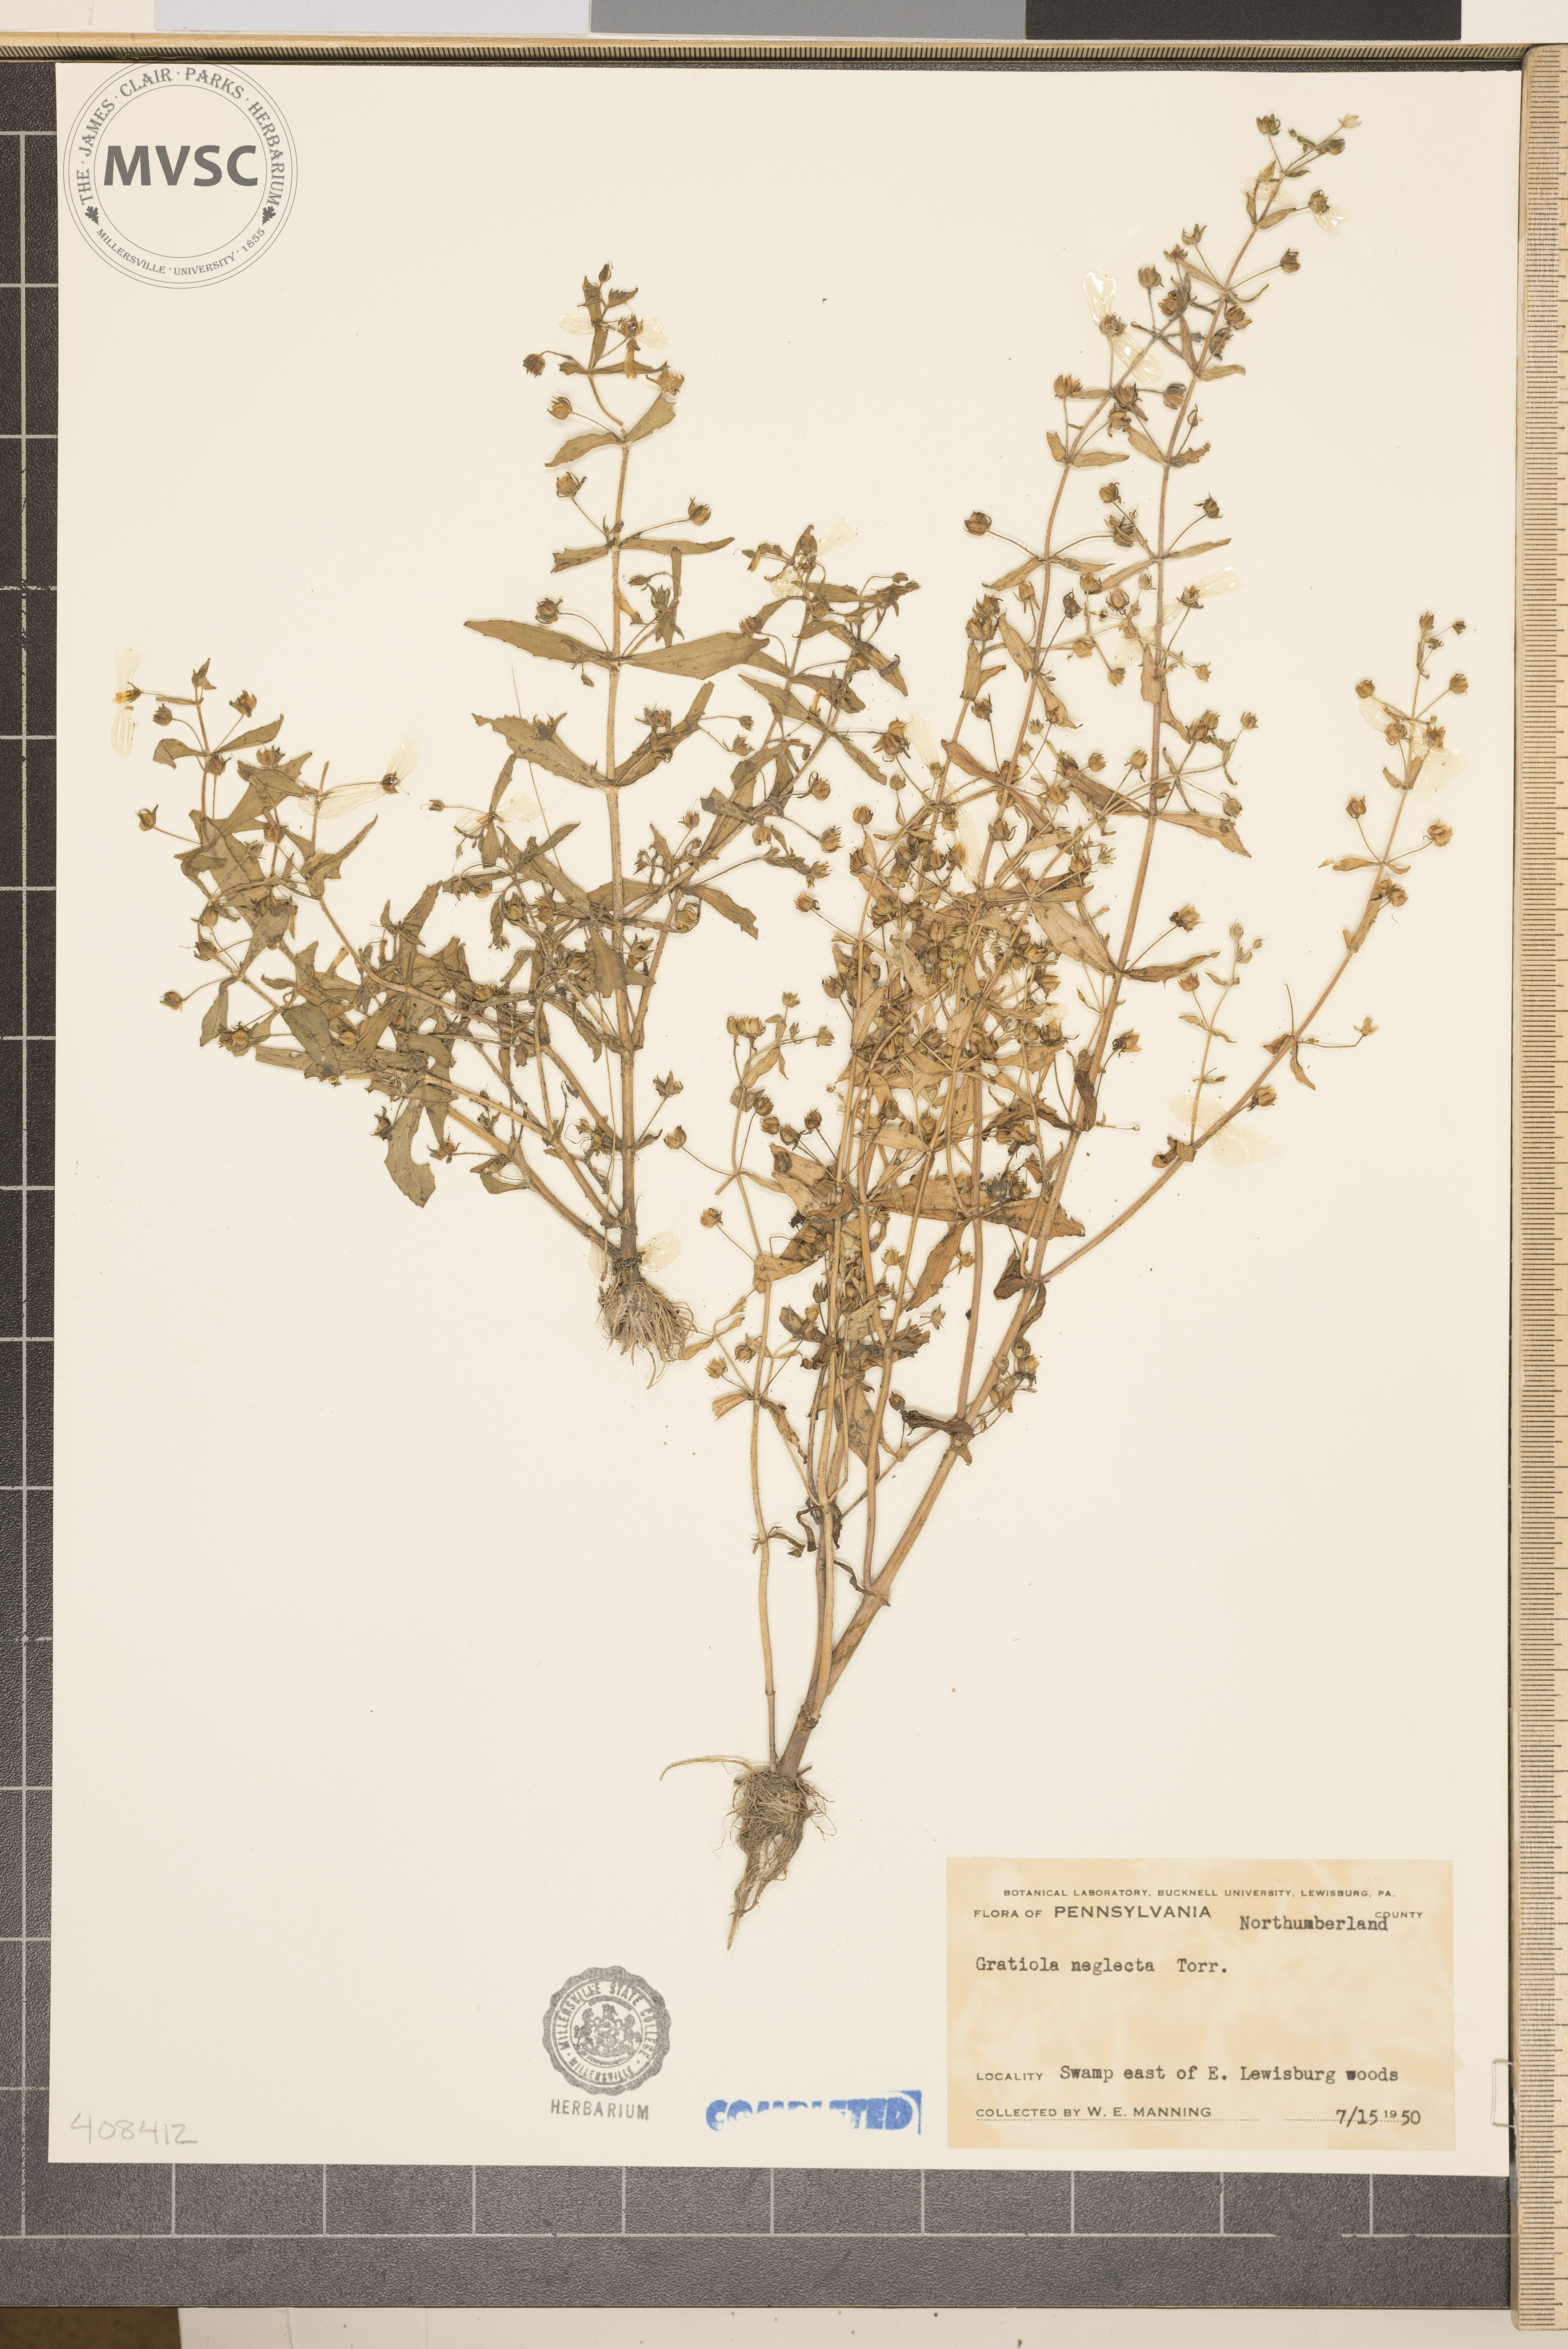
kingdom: Plantae
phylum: Tracheophyta
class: Magnoliopsida
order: Lamiales
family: Plantaginaceae
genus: Gratiola
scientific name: Gratiola neglecta
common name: American hedge-hyssop
